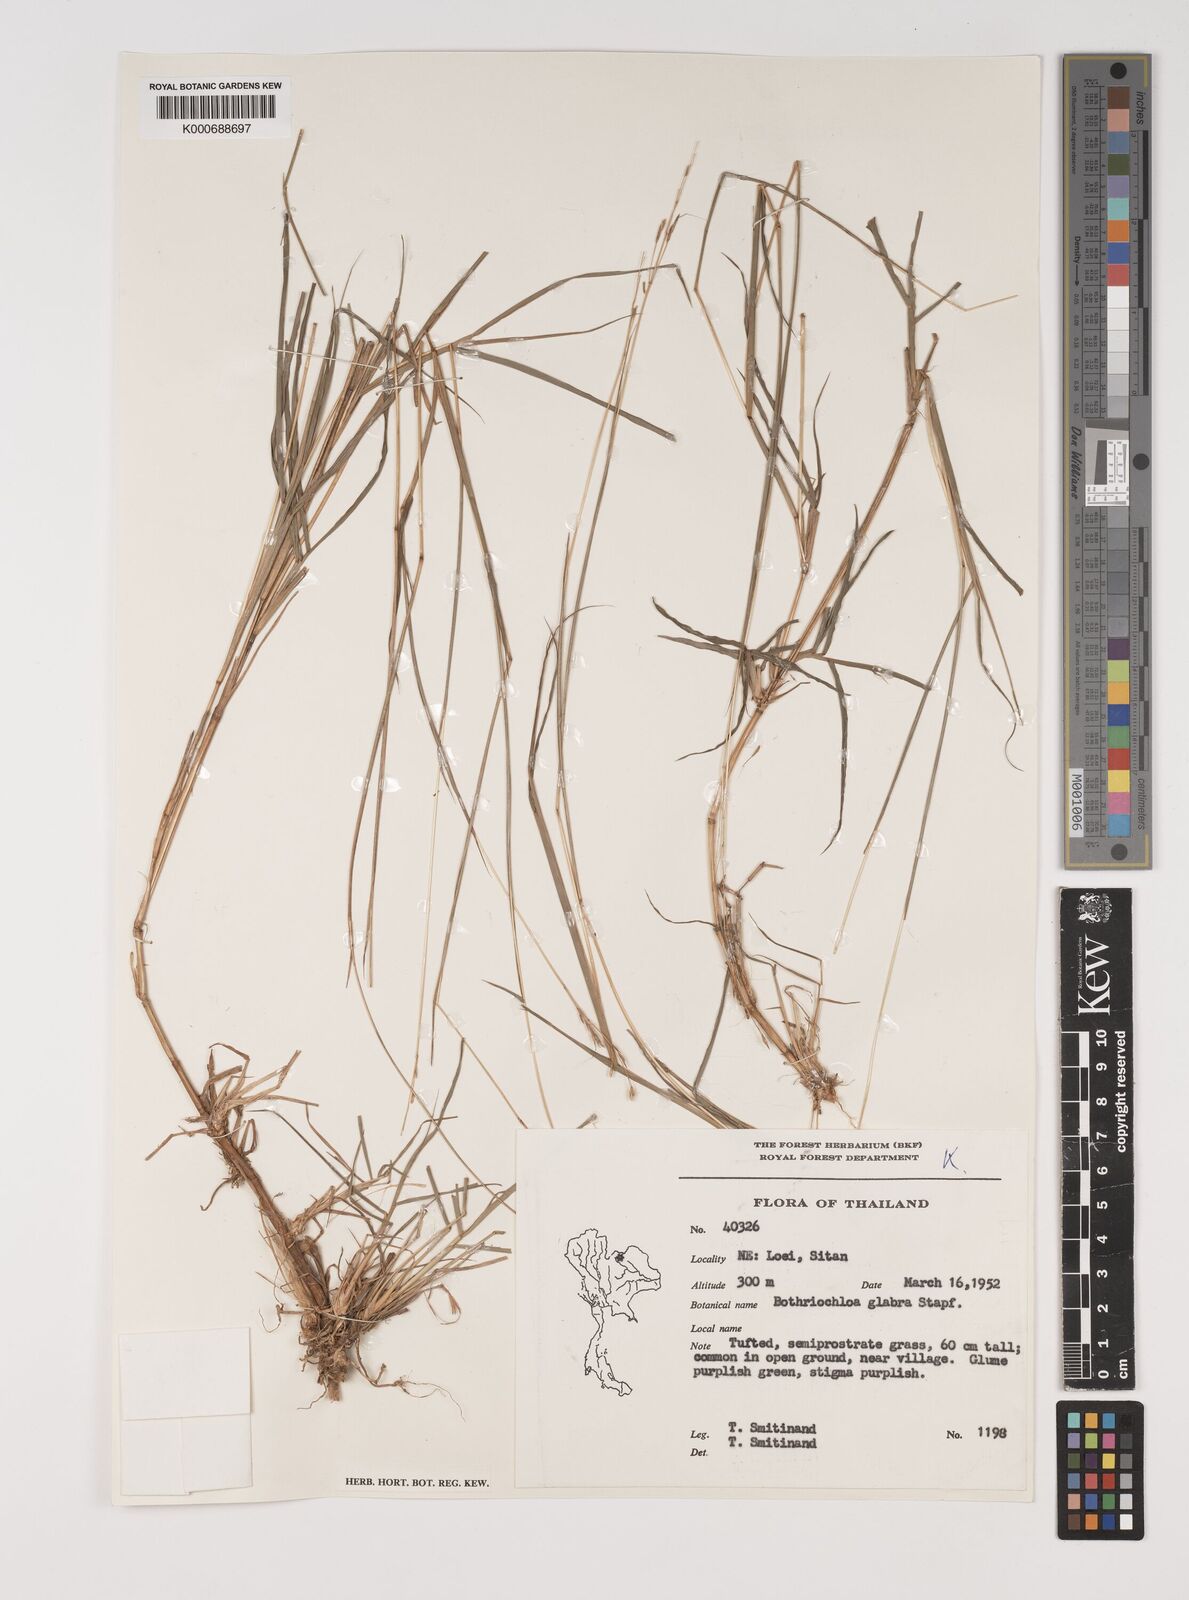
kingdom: Plantae
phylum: Tracheophyta
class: Liliopsida
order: Poales
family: Poaceae
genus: Bothriochloa
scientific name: Bothriochloa bladhii
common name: Caucasian bluestem
